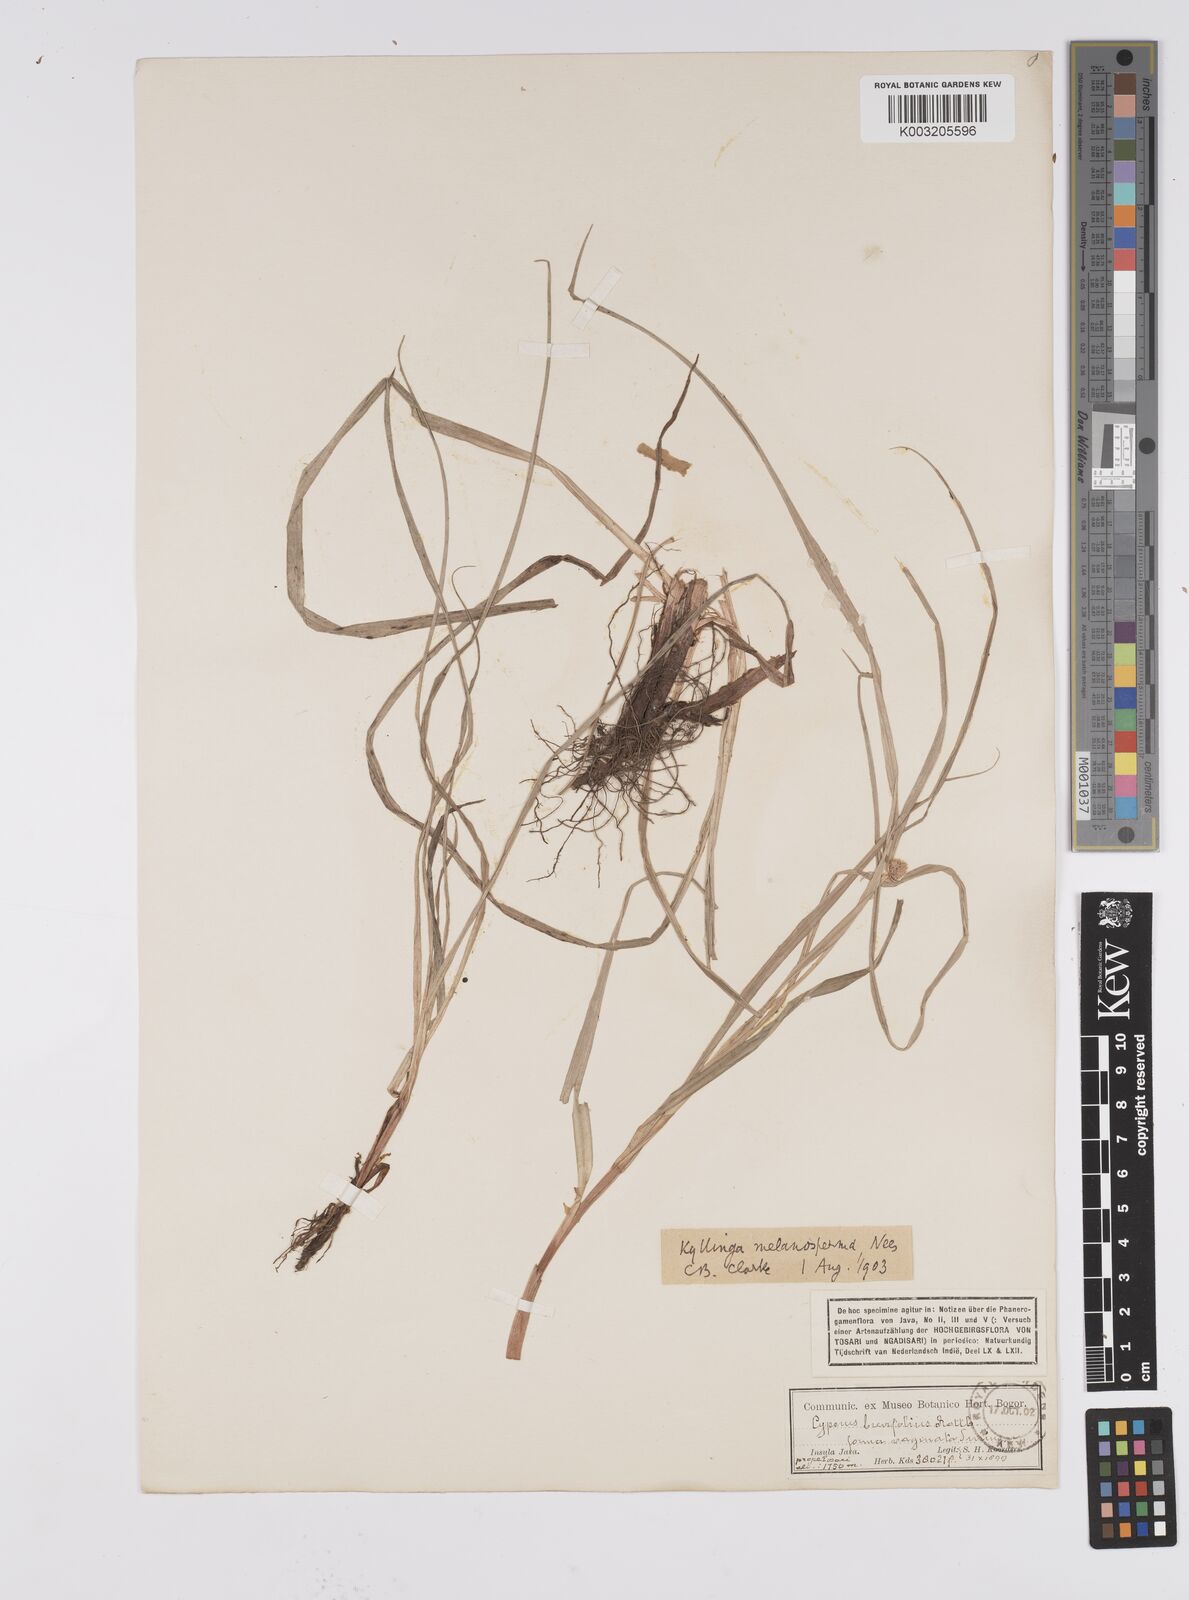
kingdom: Plantae
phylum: Tracheophyta
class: Liliopsida
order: Poales
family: Cyperaceae
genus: Cyperus
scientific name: Cyperus melanospermus
